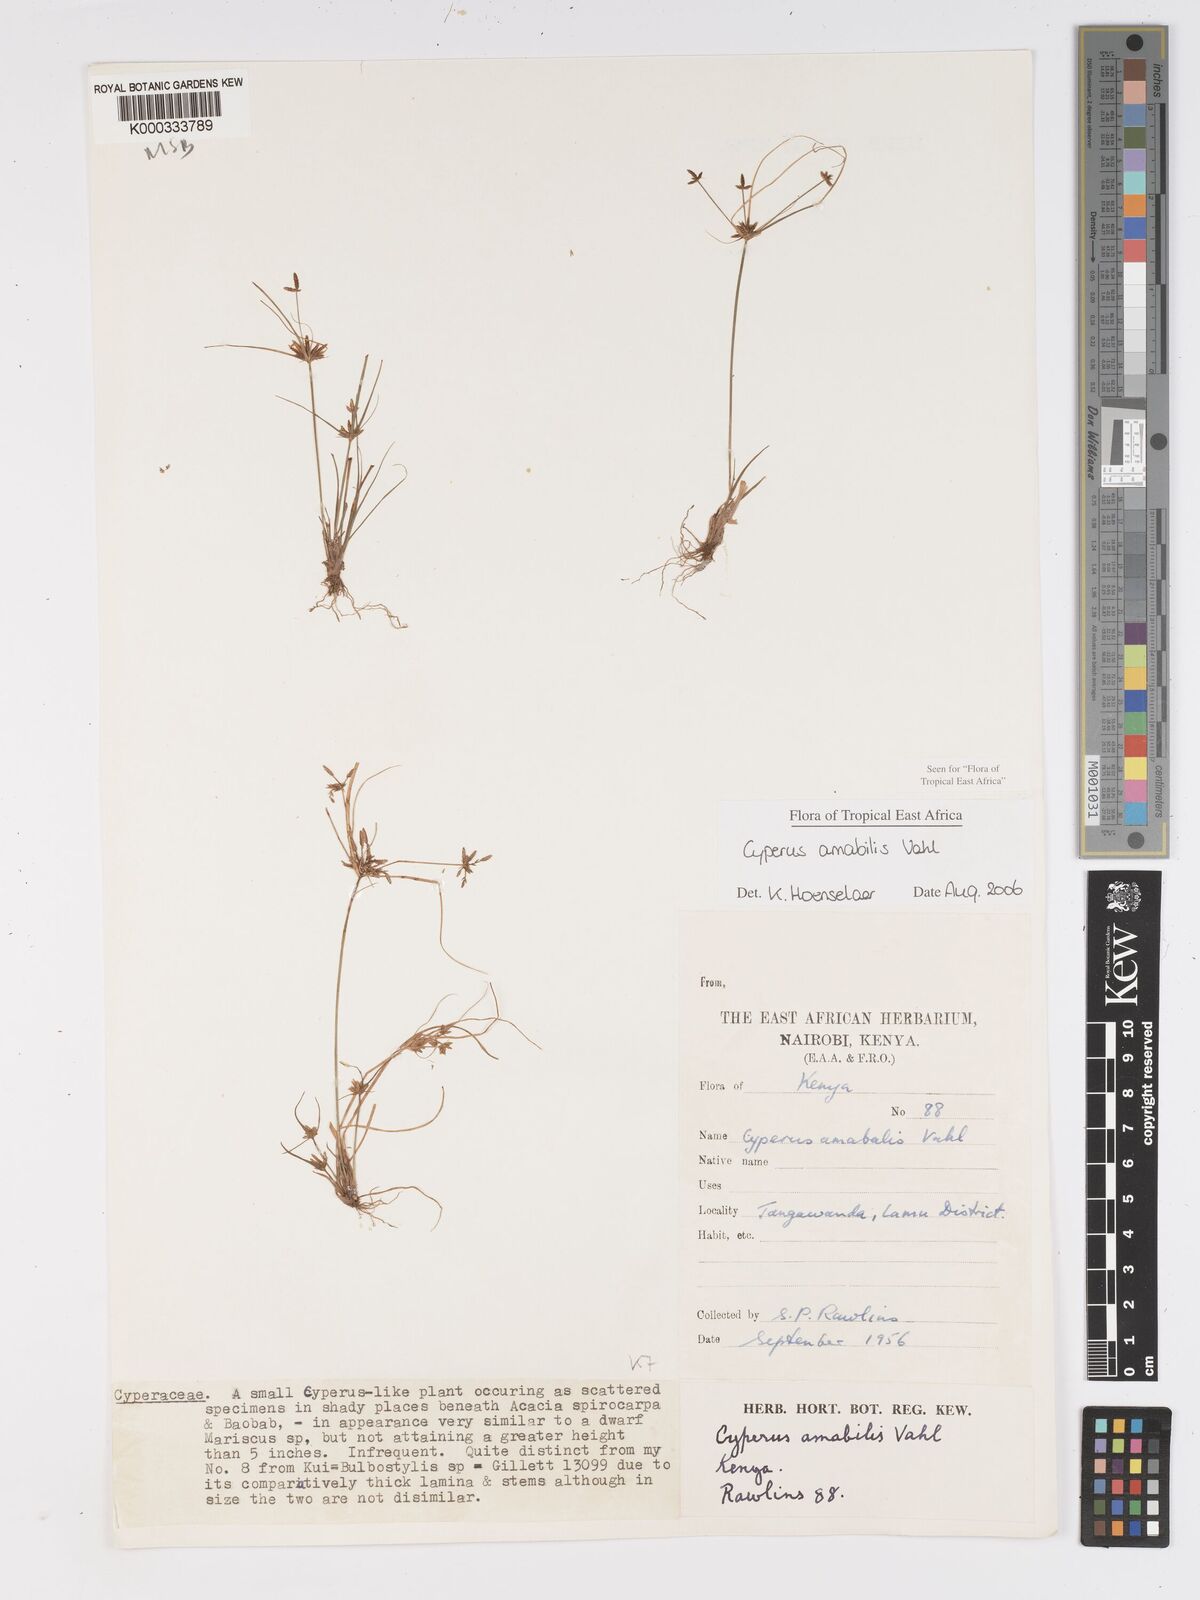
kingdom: Plantae
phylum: Tracheophyta
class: Liliopsida
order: Poales
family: Cyperaceae
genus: Cyperus
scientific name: Cyperus amabilis
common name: Foothill flat sedge
